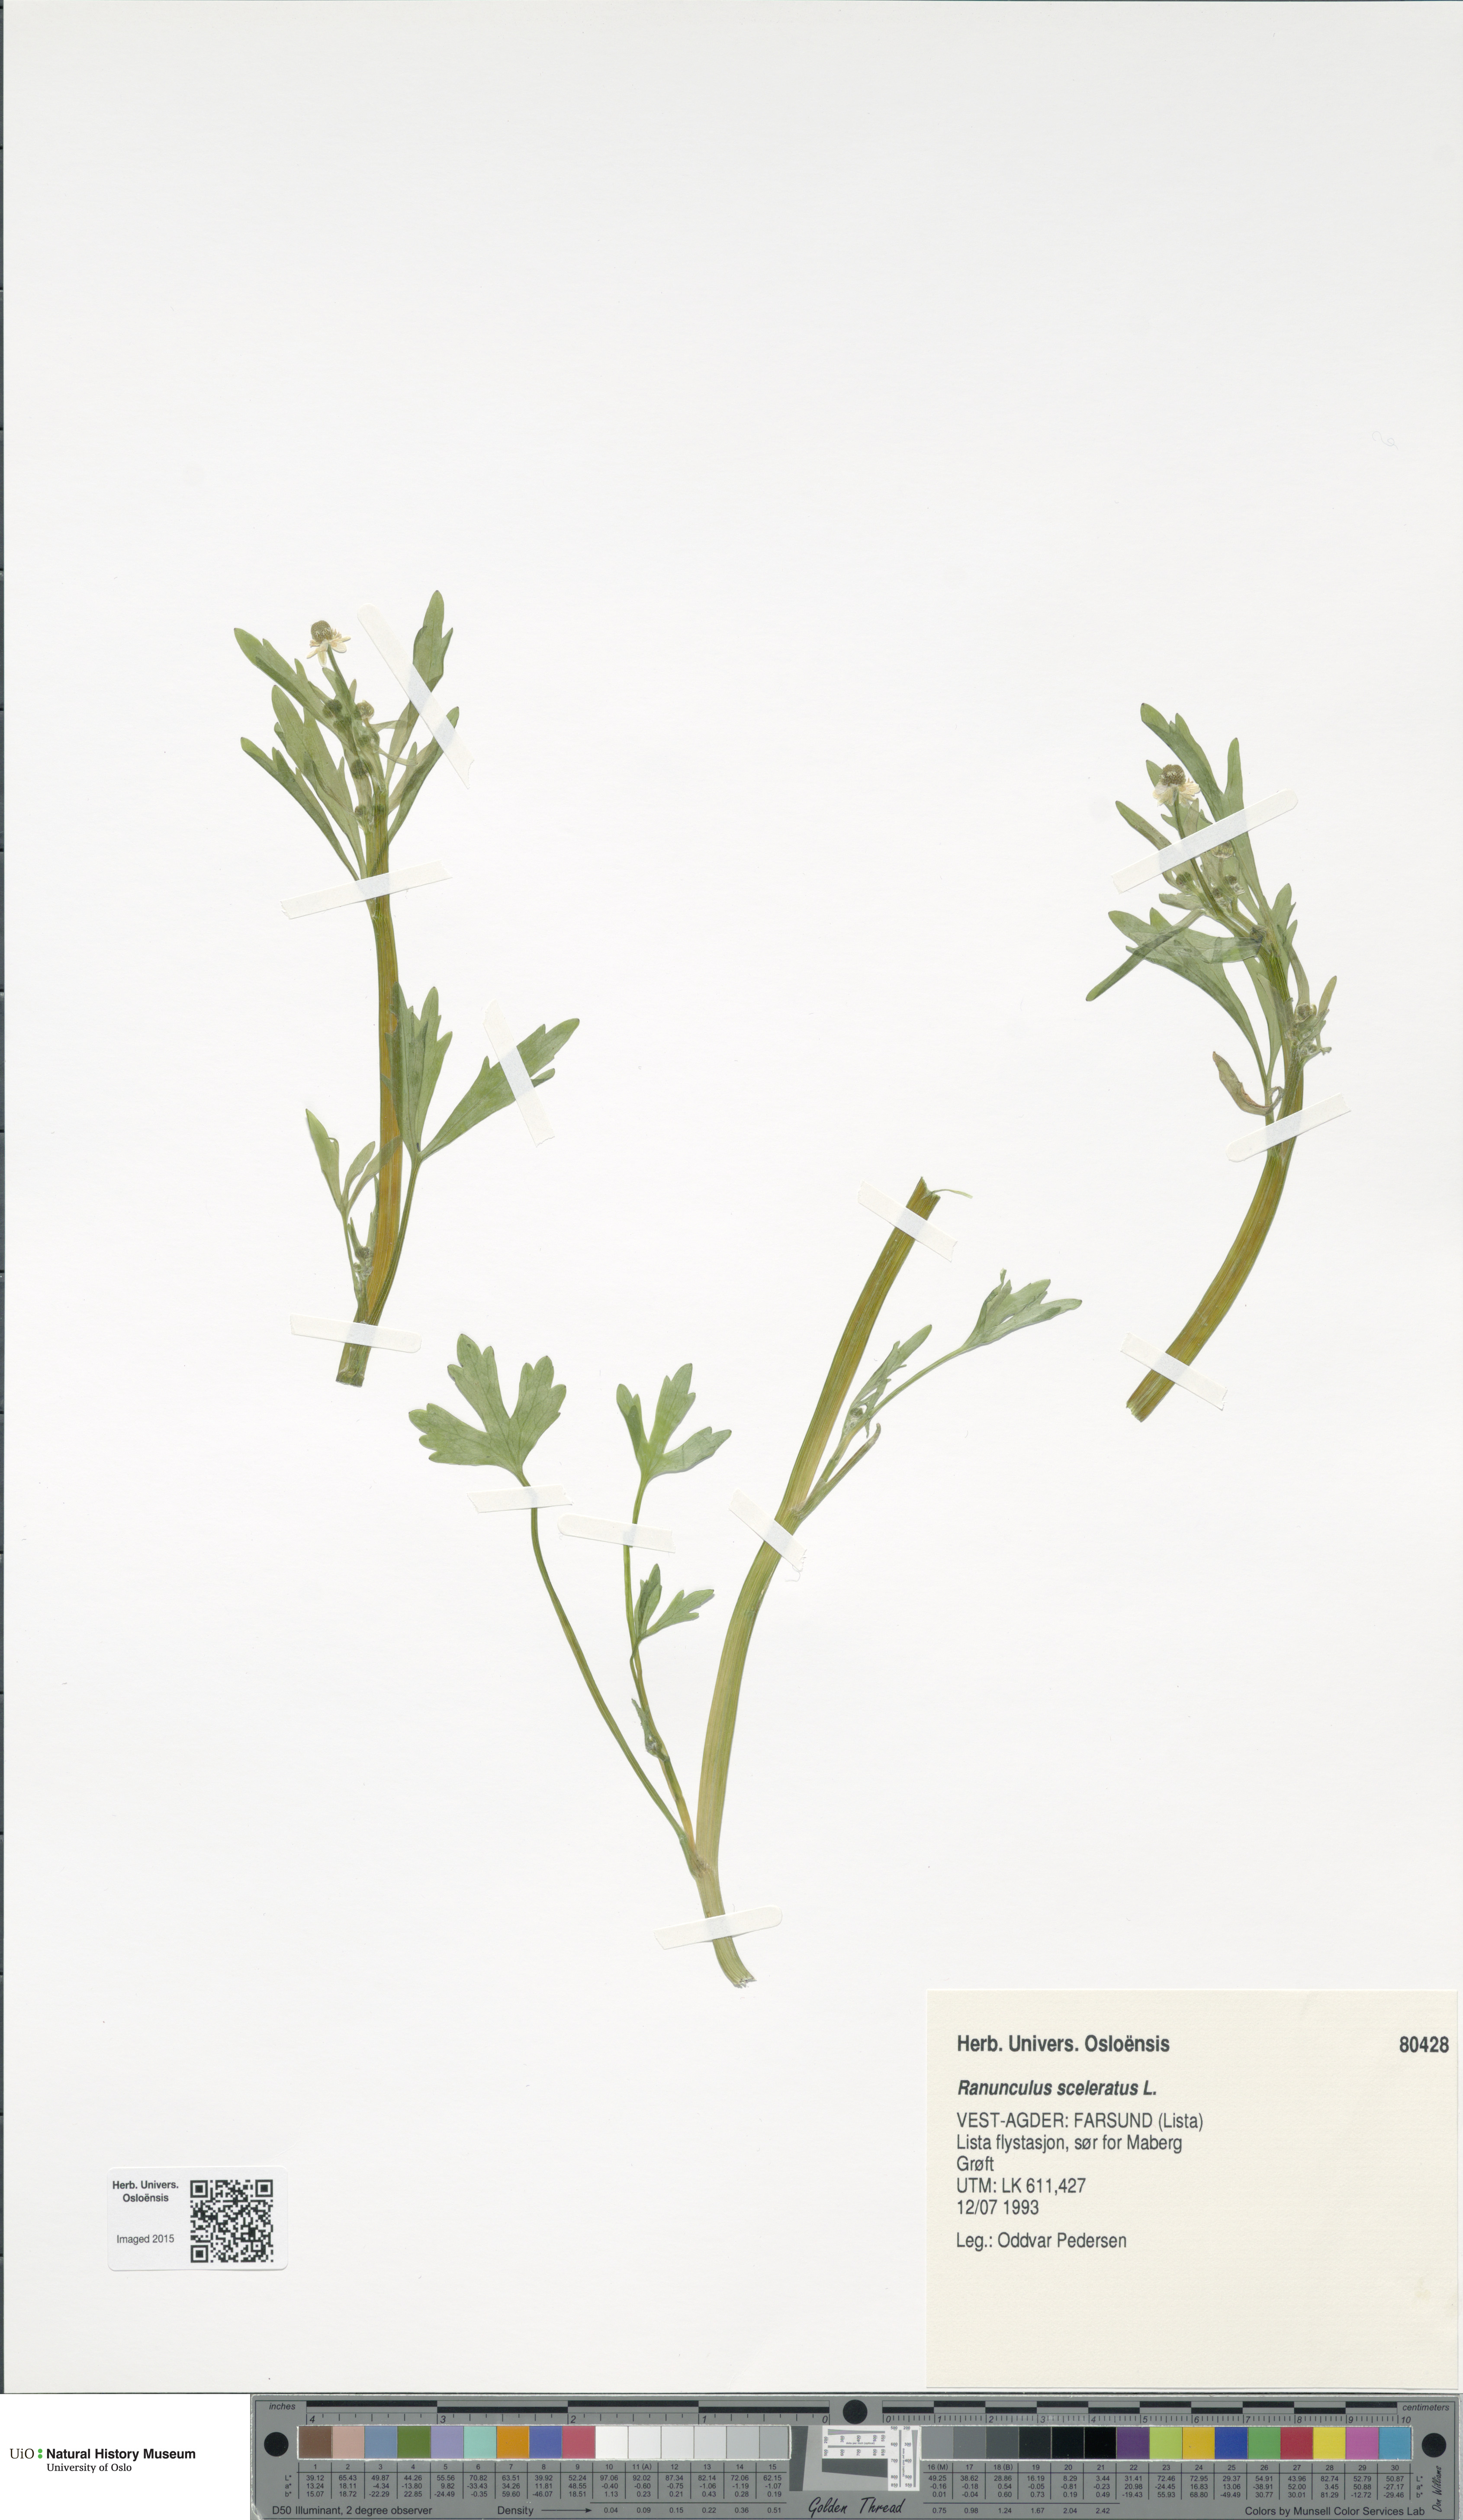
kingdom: Plantae
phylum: Tracheophyta
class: Magnoliopsida
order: Ranunculales
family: Ranunculaceae
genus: Ranunculus
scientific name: Ranunculus sceleratus
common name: Celery-leaved buttercup
